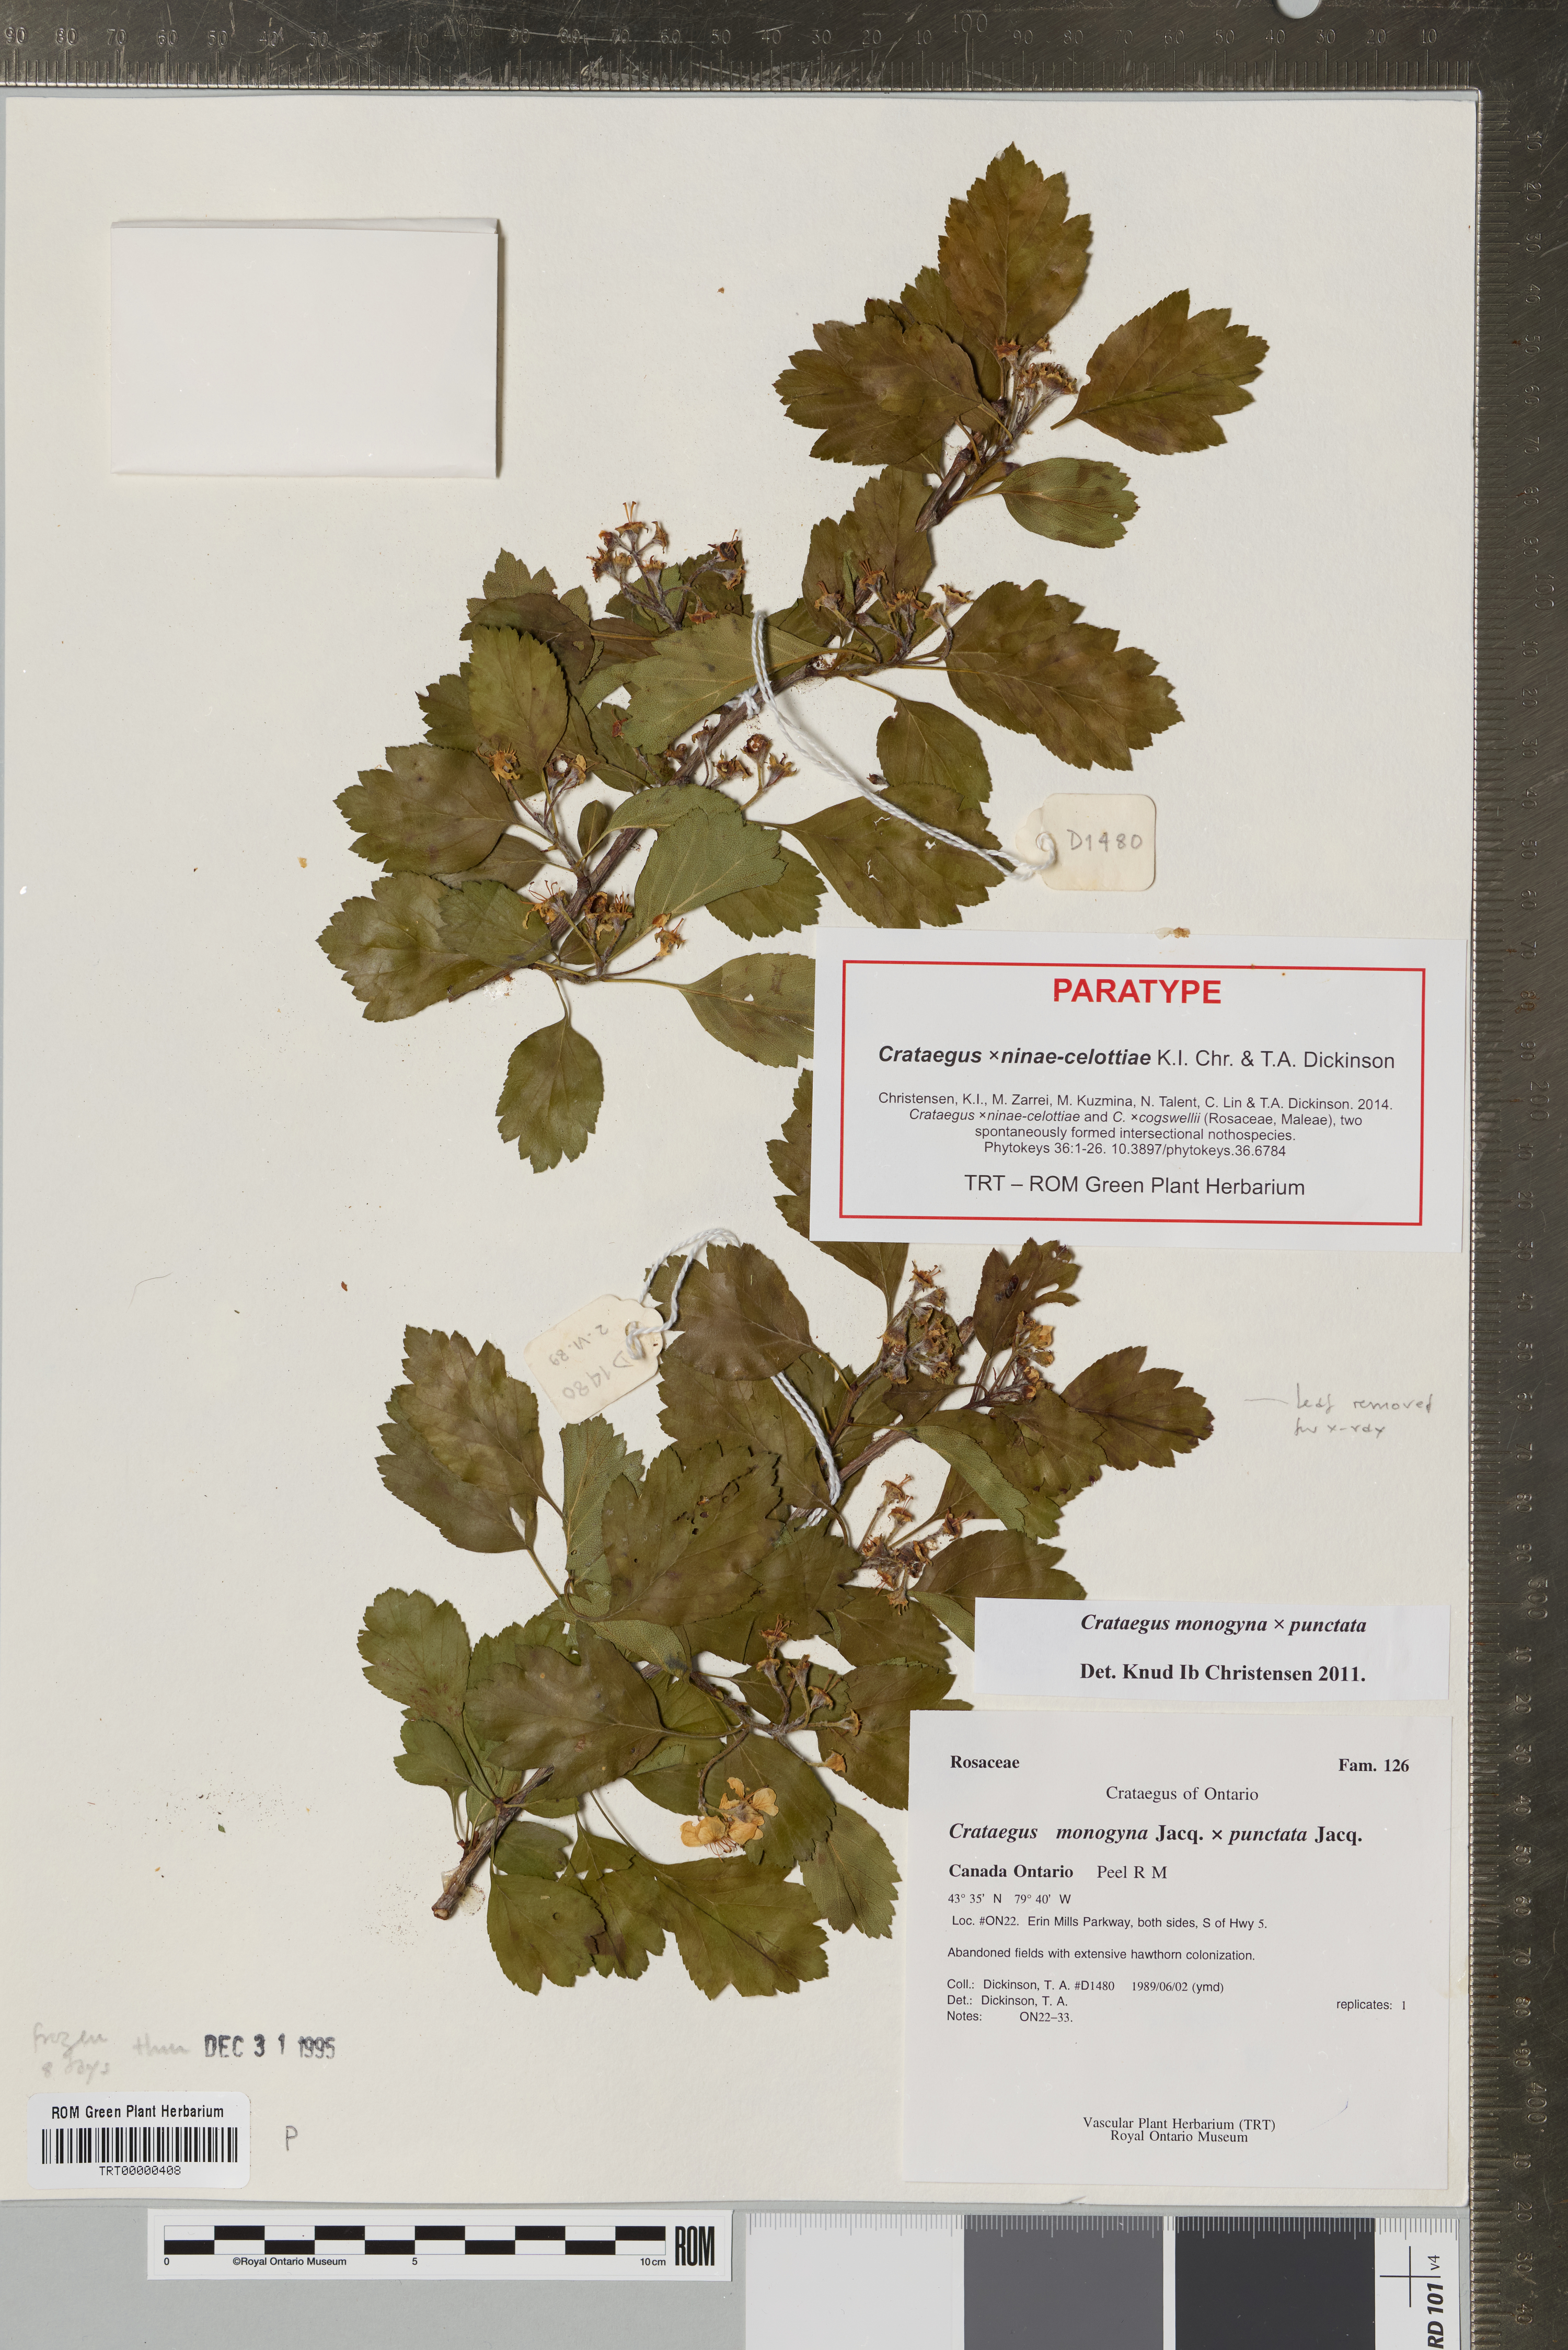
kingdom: Plantae
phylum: Tracheophyta
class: Magnoliopsida
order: Rosales
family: Rosaceae
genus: Crataegus
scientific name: Crataegus
